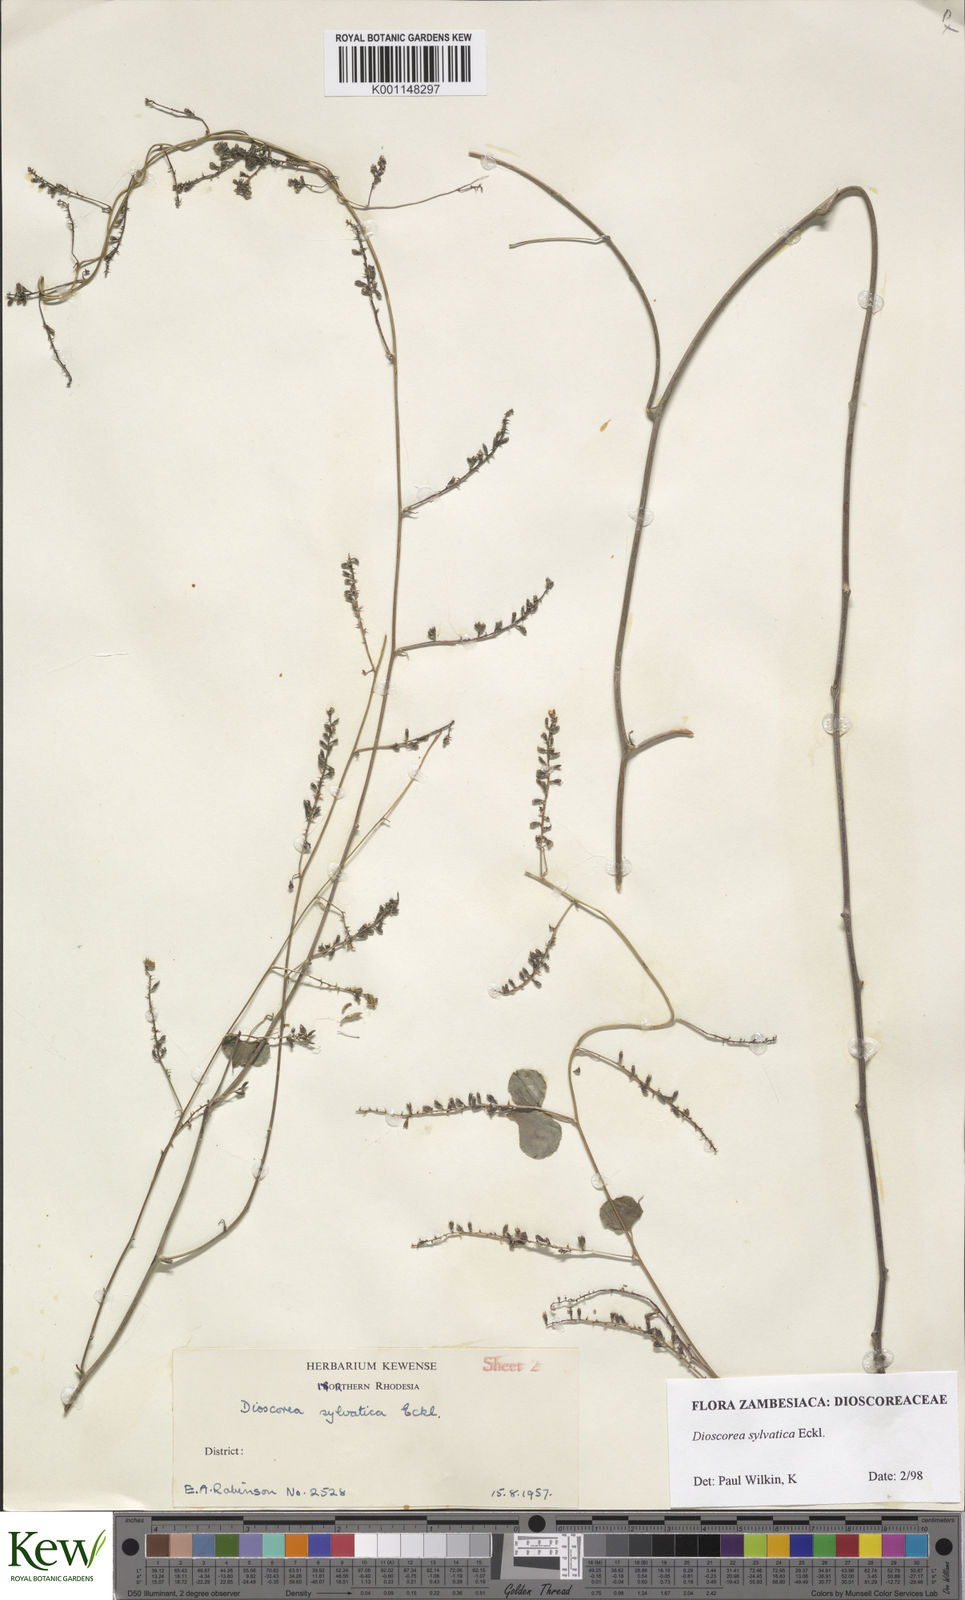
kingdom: Plantae
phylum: Tracheophyta
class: Liliopsida
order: Dioscoreales
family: Dioscoreaceae
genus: Dioscorea
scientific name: Dioscorea sylvatica
